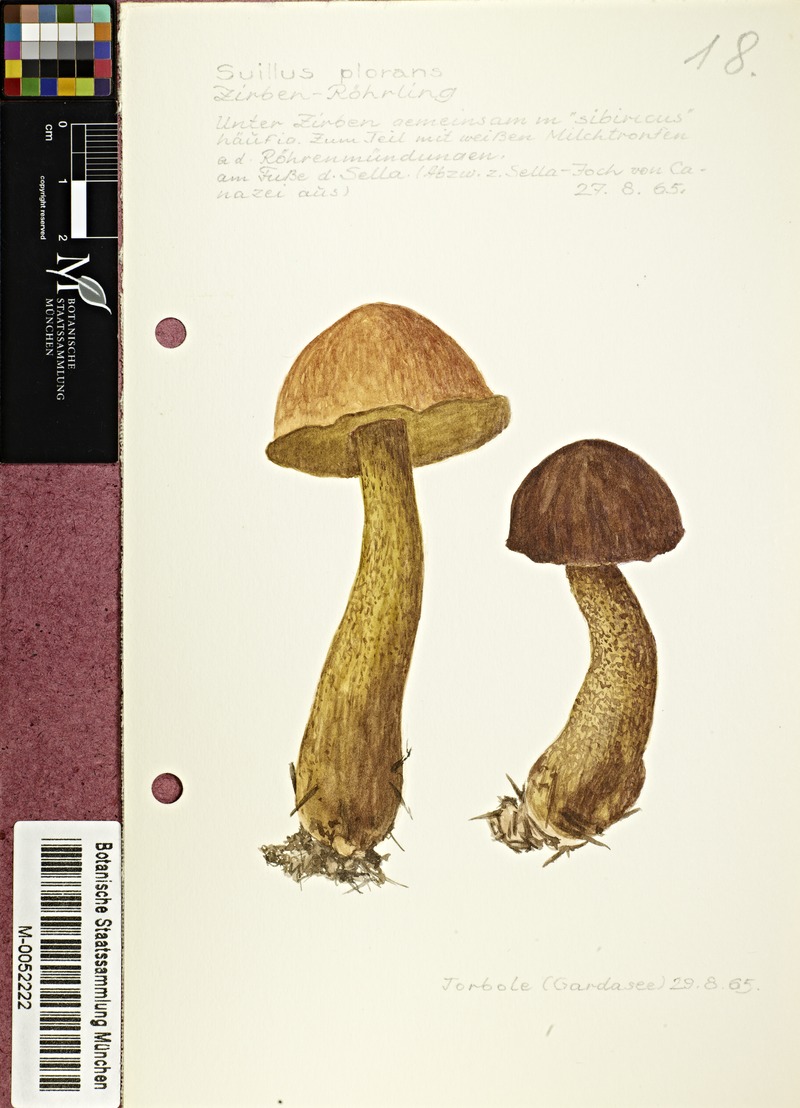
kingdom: Fungi
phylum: Basidiomycota
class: Agaricomycetes
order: Boletales
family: Suillaceae
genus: Suillus
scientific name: Suillus plorans
